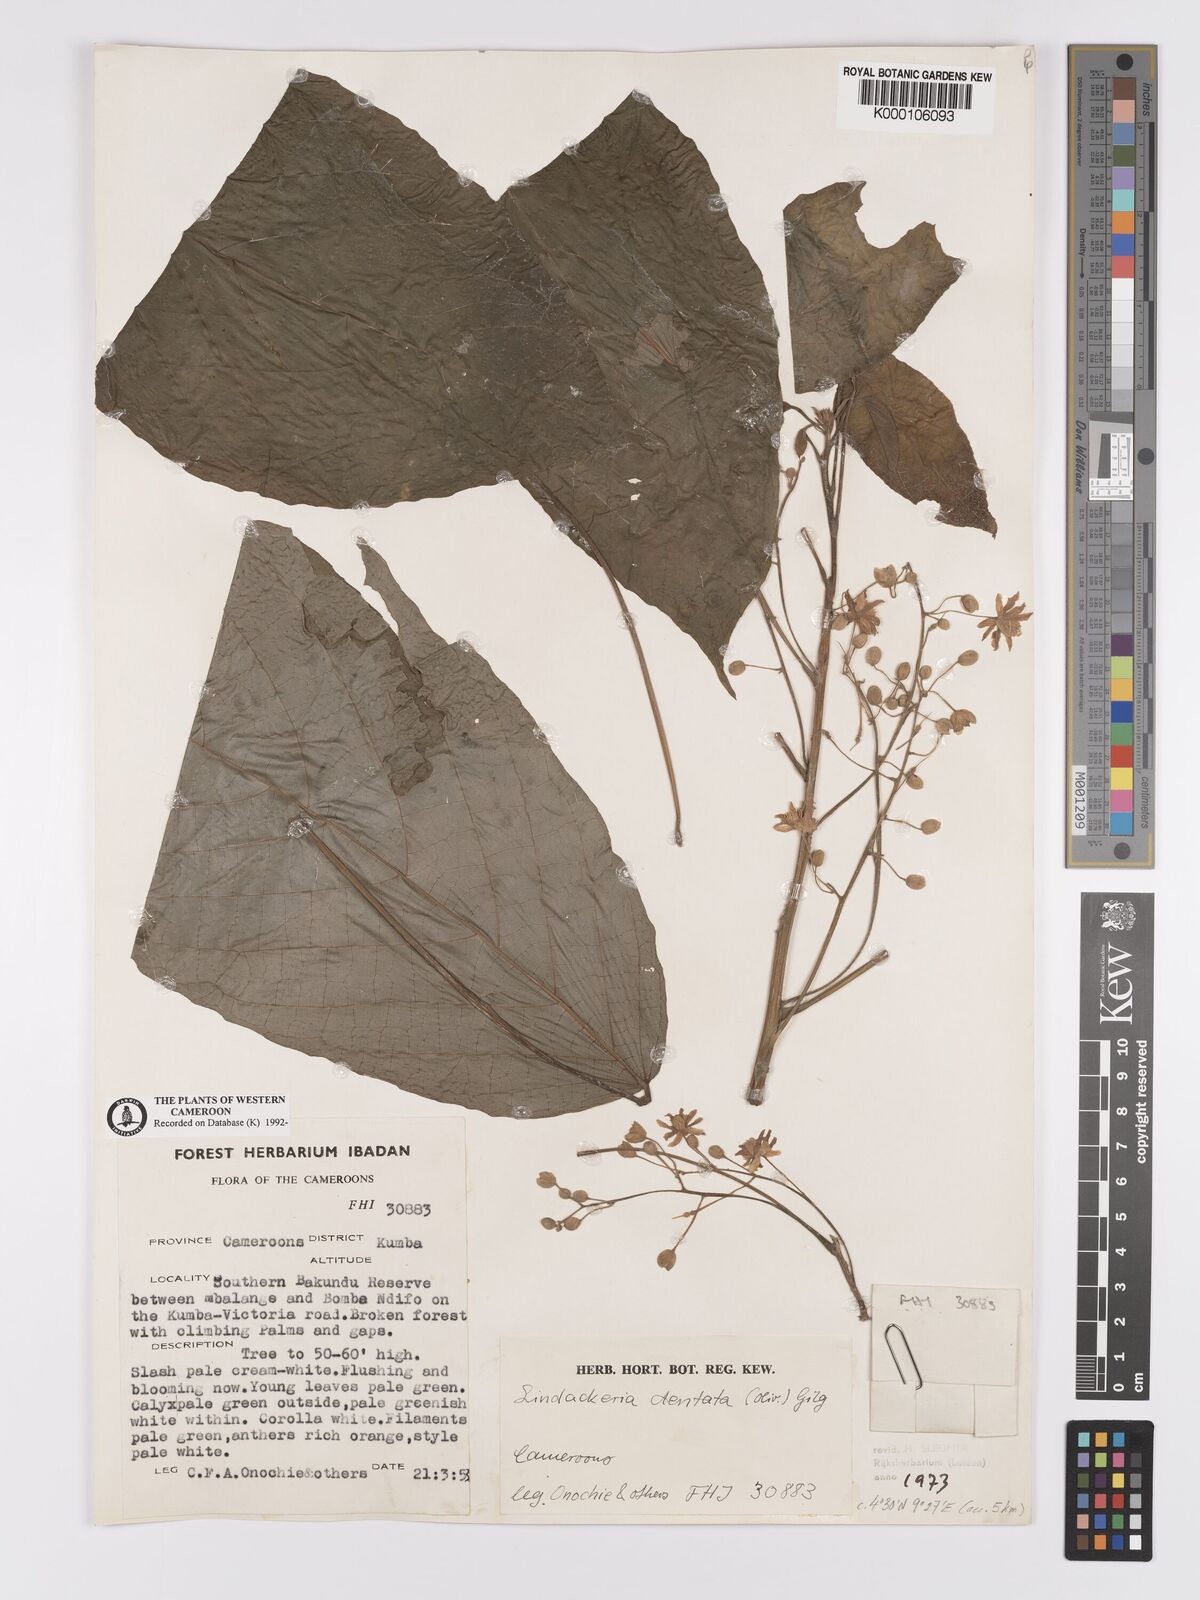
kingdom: Plantae
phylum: Tracheophyta
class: Magnoliopsida
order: Malpighiales
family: Achariaceae
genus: Lindackeria
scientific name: Lindackeria dentata
